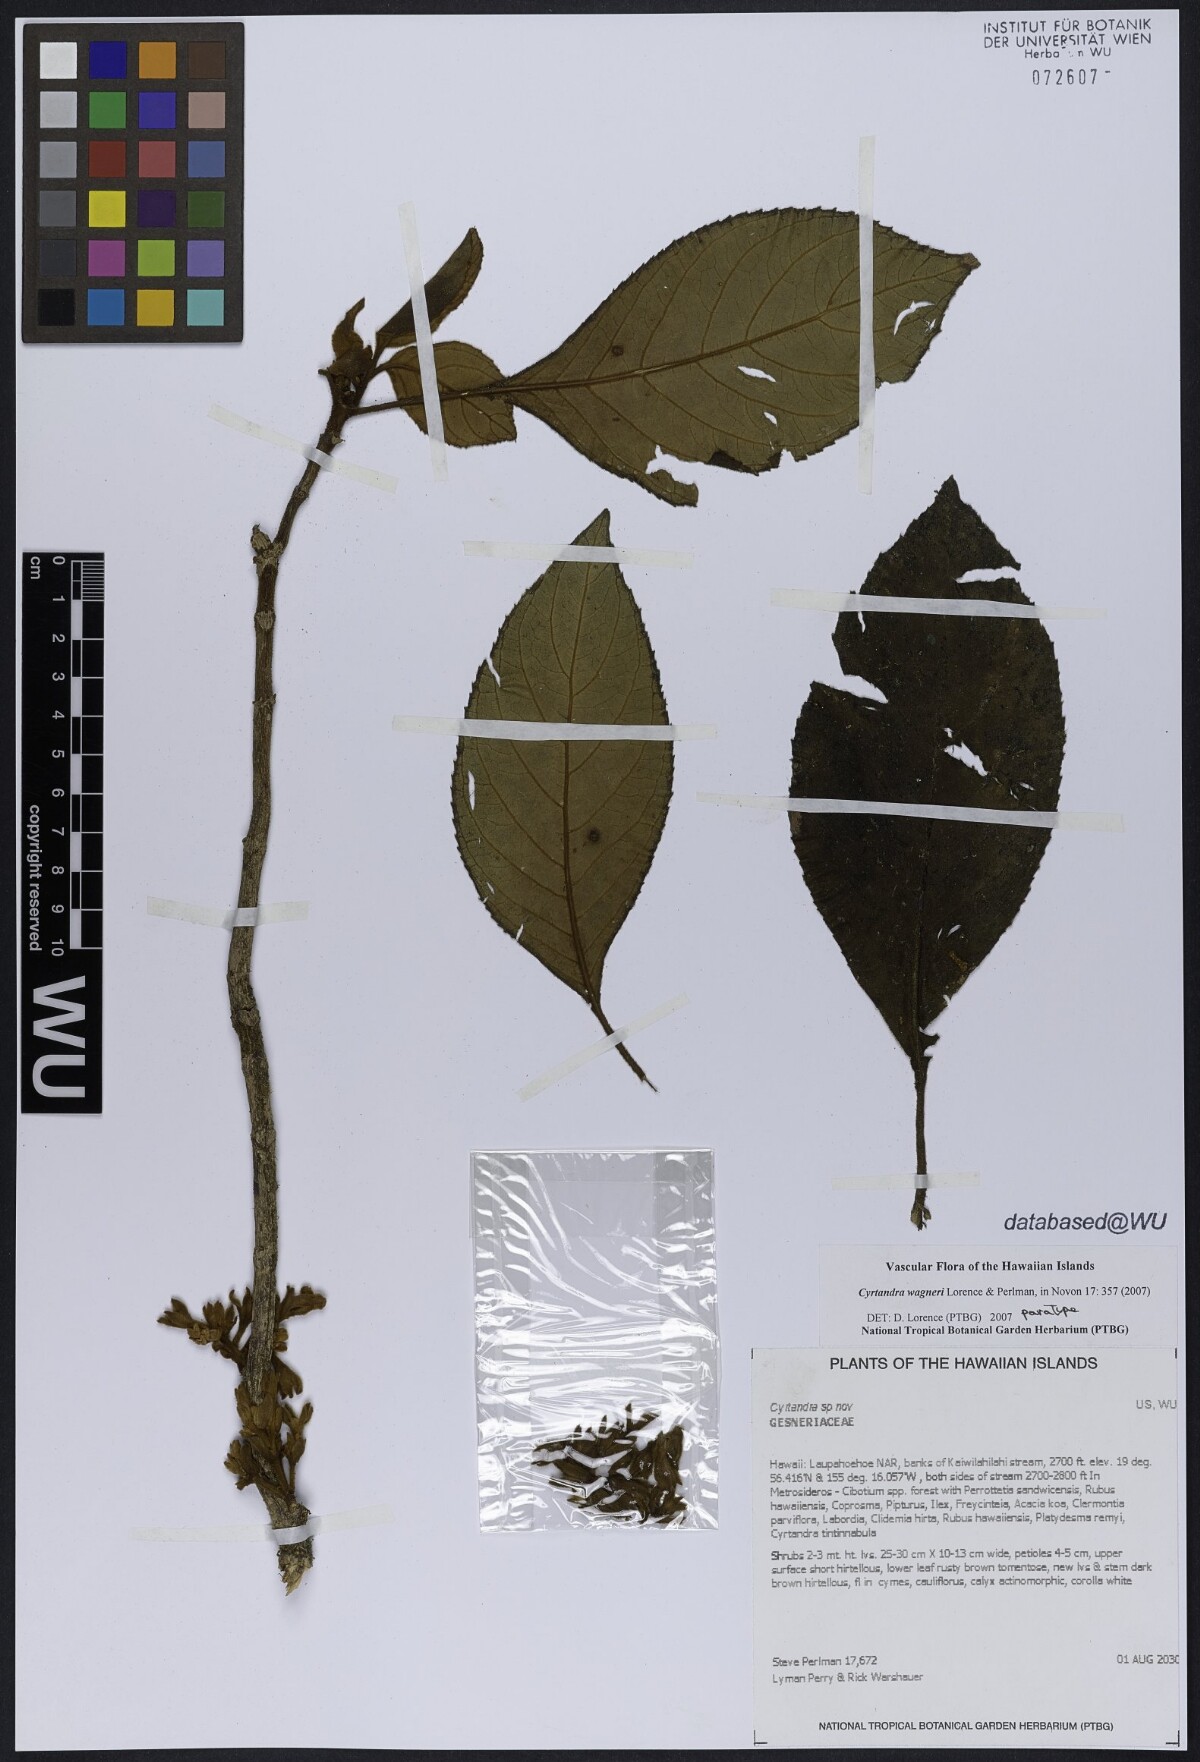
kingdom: Plantae
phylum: Tracheophyta
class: Magnoliopsida
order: Lamiales
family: Gesneriaceae
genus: Cyrtandra
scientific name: Cyrtandra wagneri
